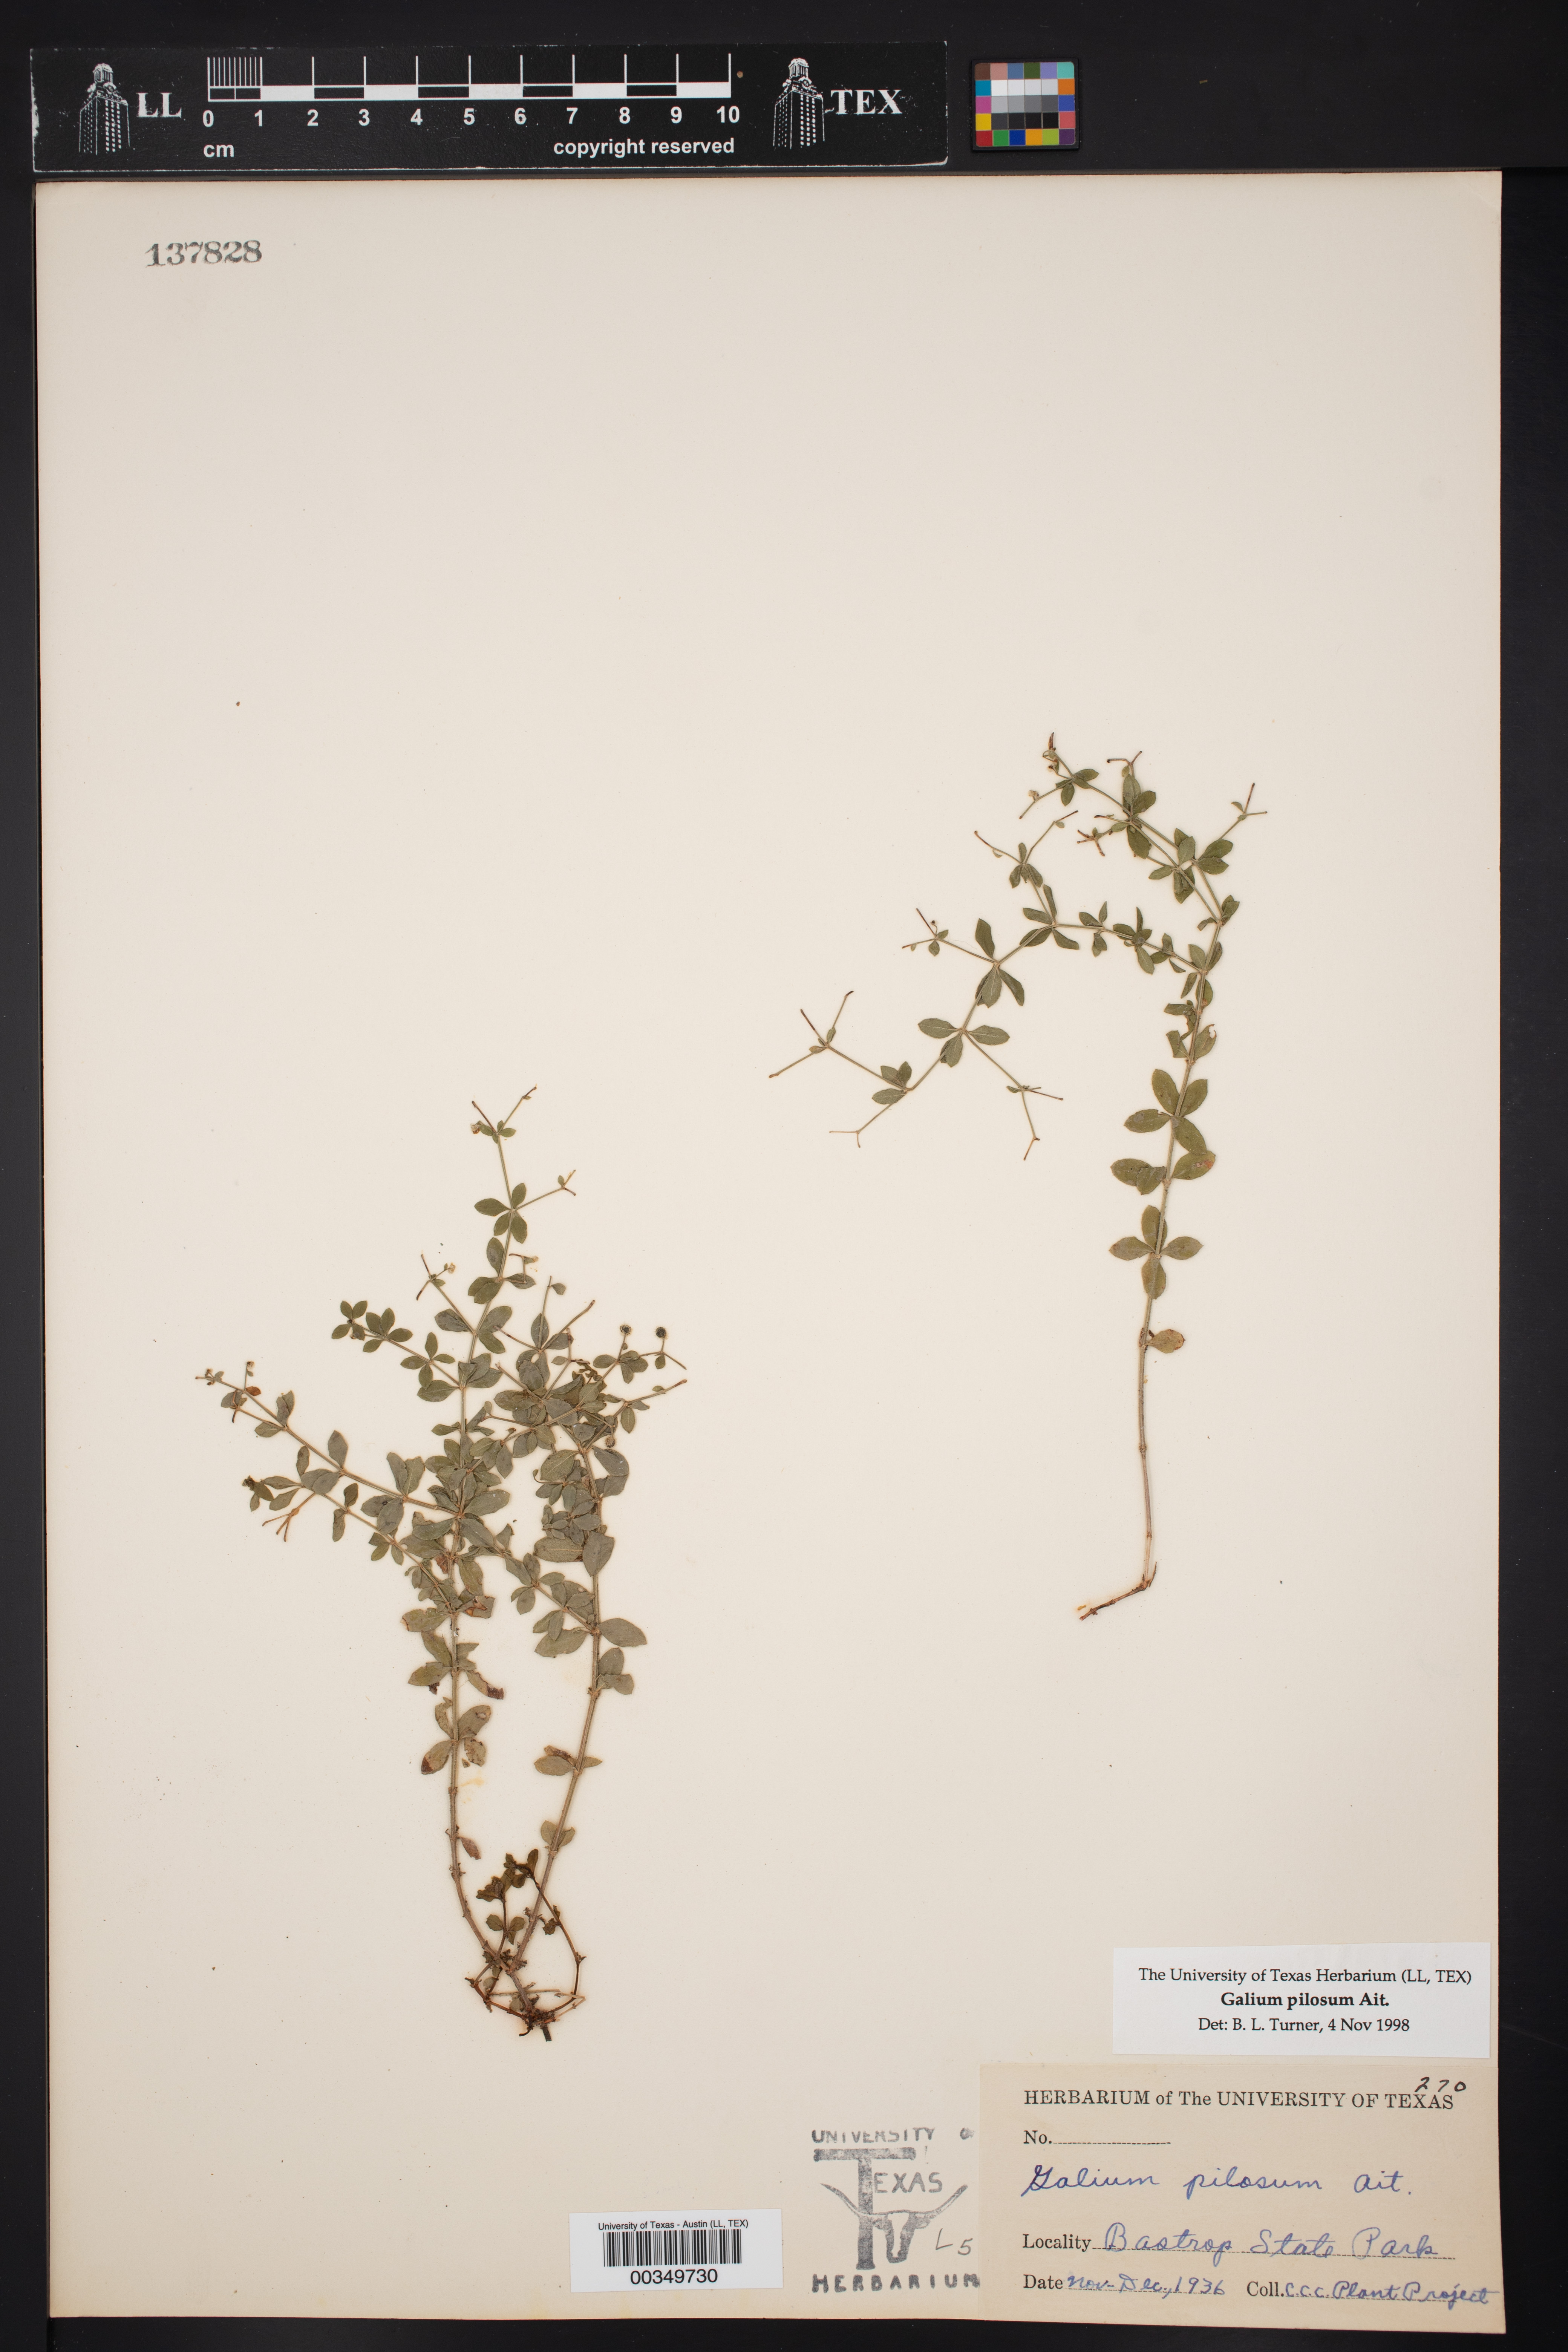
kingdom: Plantae
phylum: Tracheophyta
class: Magnoliopsida
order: Gentianales
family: Rubiaceae
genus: Galium
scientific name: Galium pilosum
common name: Hairy bedstraw
